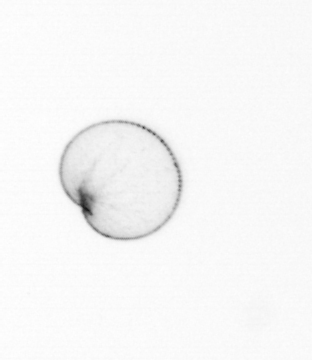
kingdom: Chromista
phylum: Myzozoa
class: Dinophyceae
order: Noctilucales
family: Noctilucaceae
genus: Noctiluca
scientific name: Noctiluca scintillans
